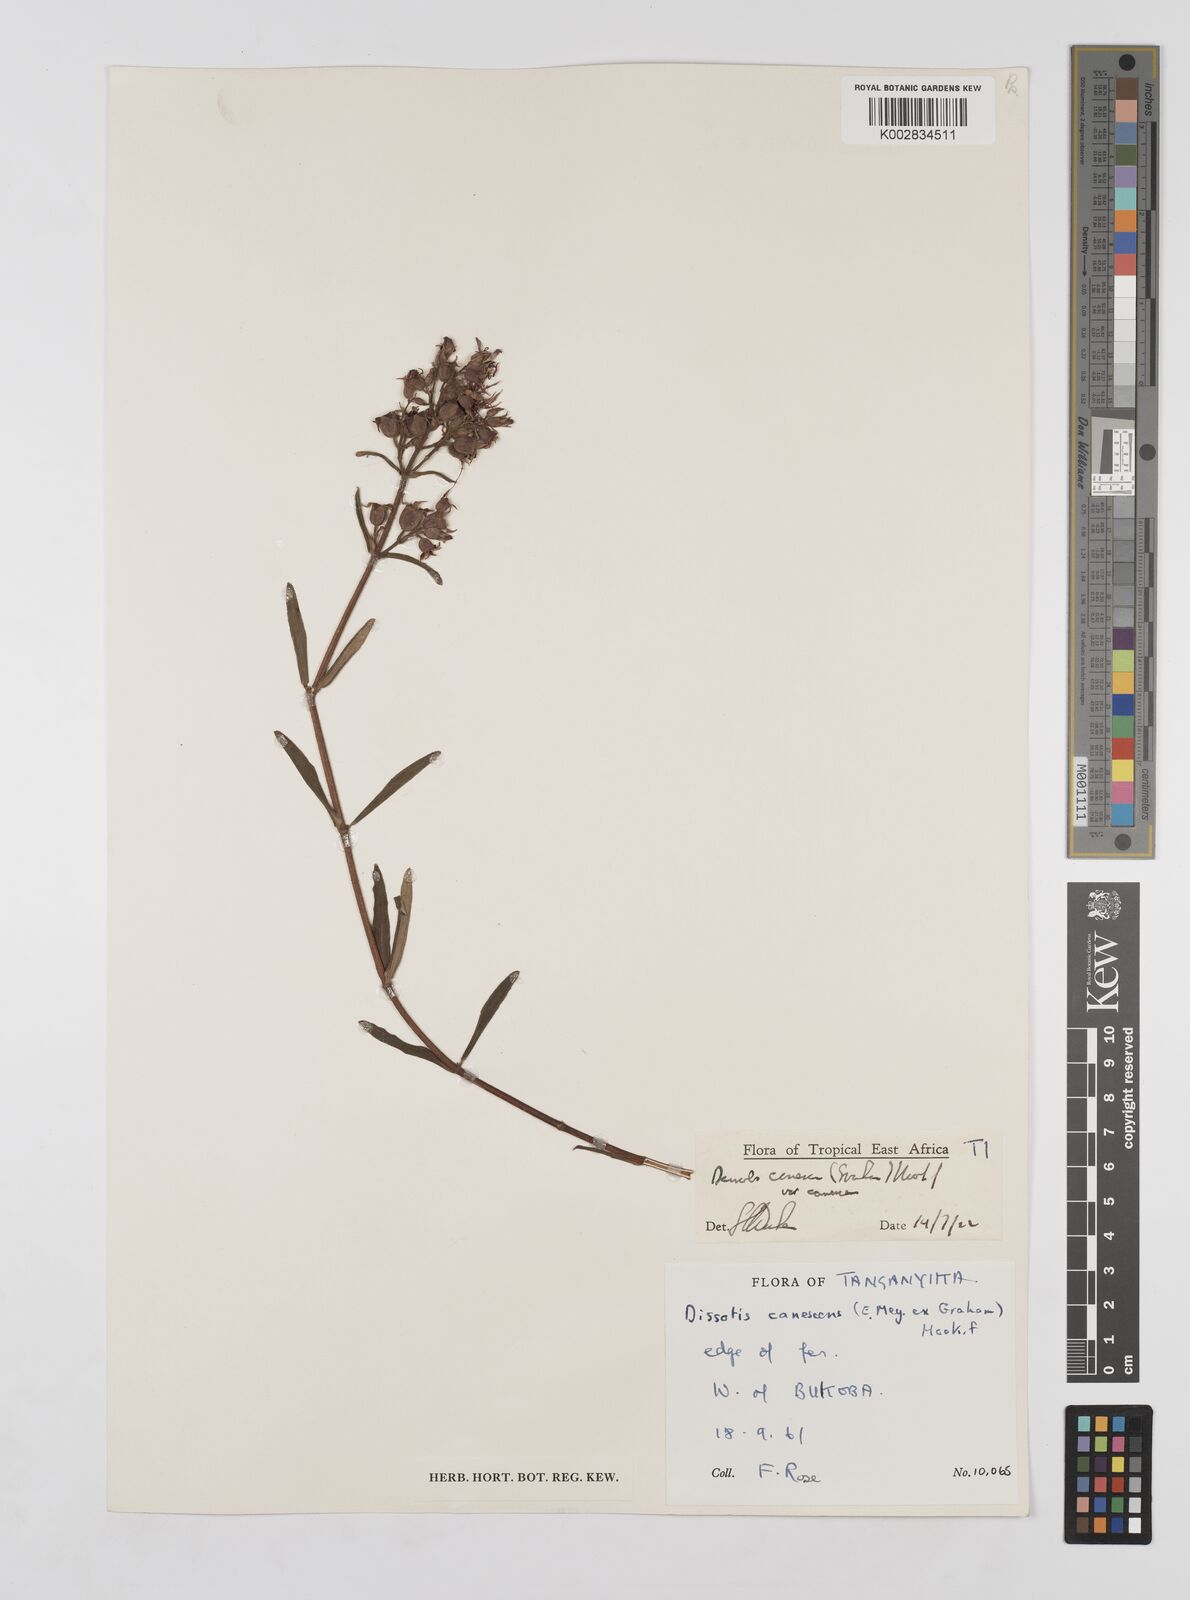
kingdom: Plantae
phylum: Tracheophyta
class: Magnoliopsida
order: Myrtales
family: Melastomataceae
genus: Argyrella
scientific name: Argyrella canescens
